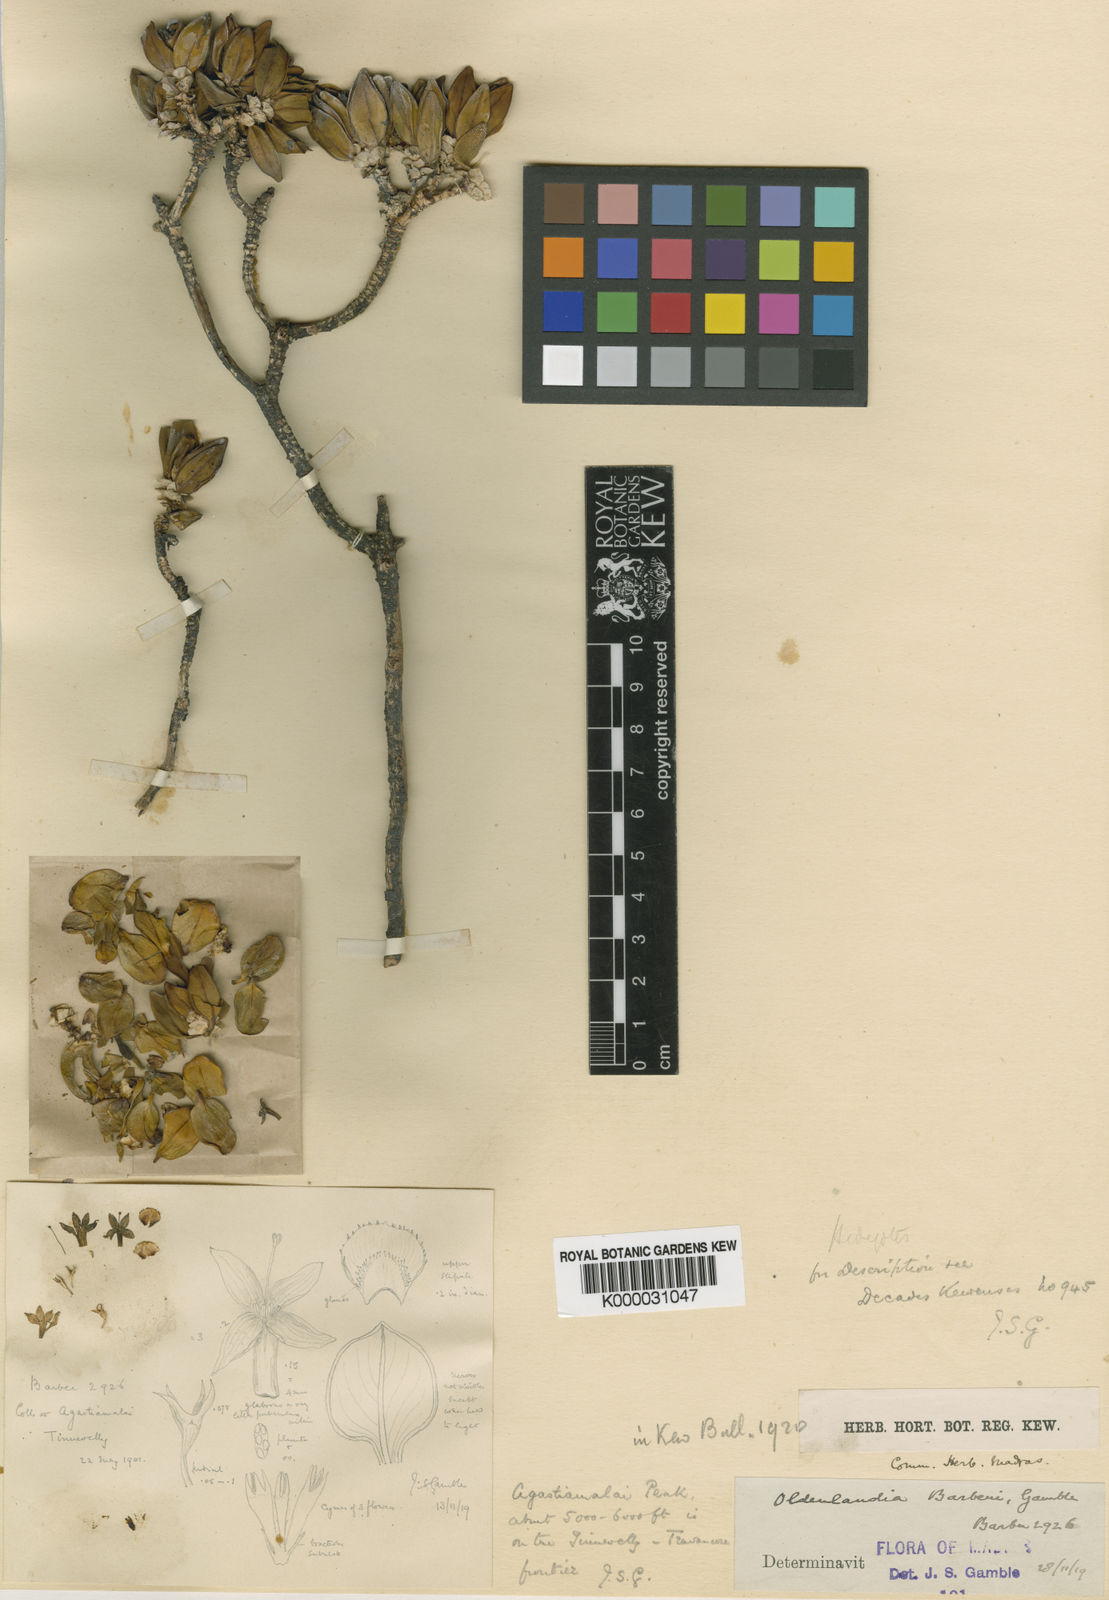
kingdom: Plantae
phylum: Tracheophyta
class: Magnoliopsida
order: Gentianales
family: Rubiaceae
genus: Hedyotis
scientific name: Hedyotis barberi
